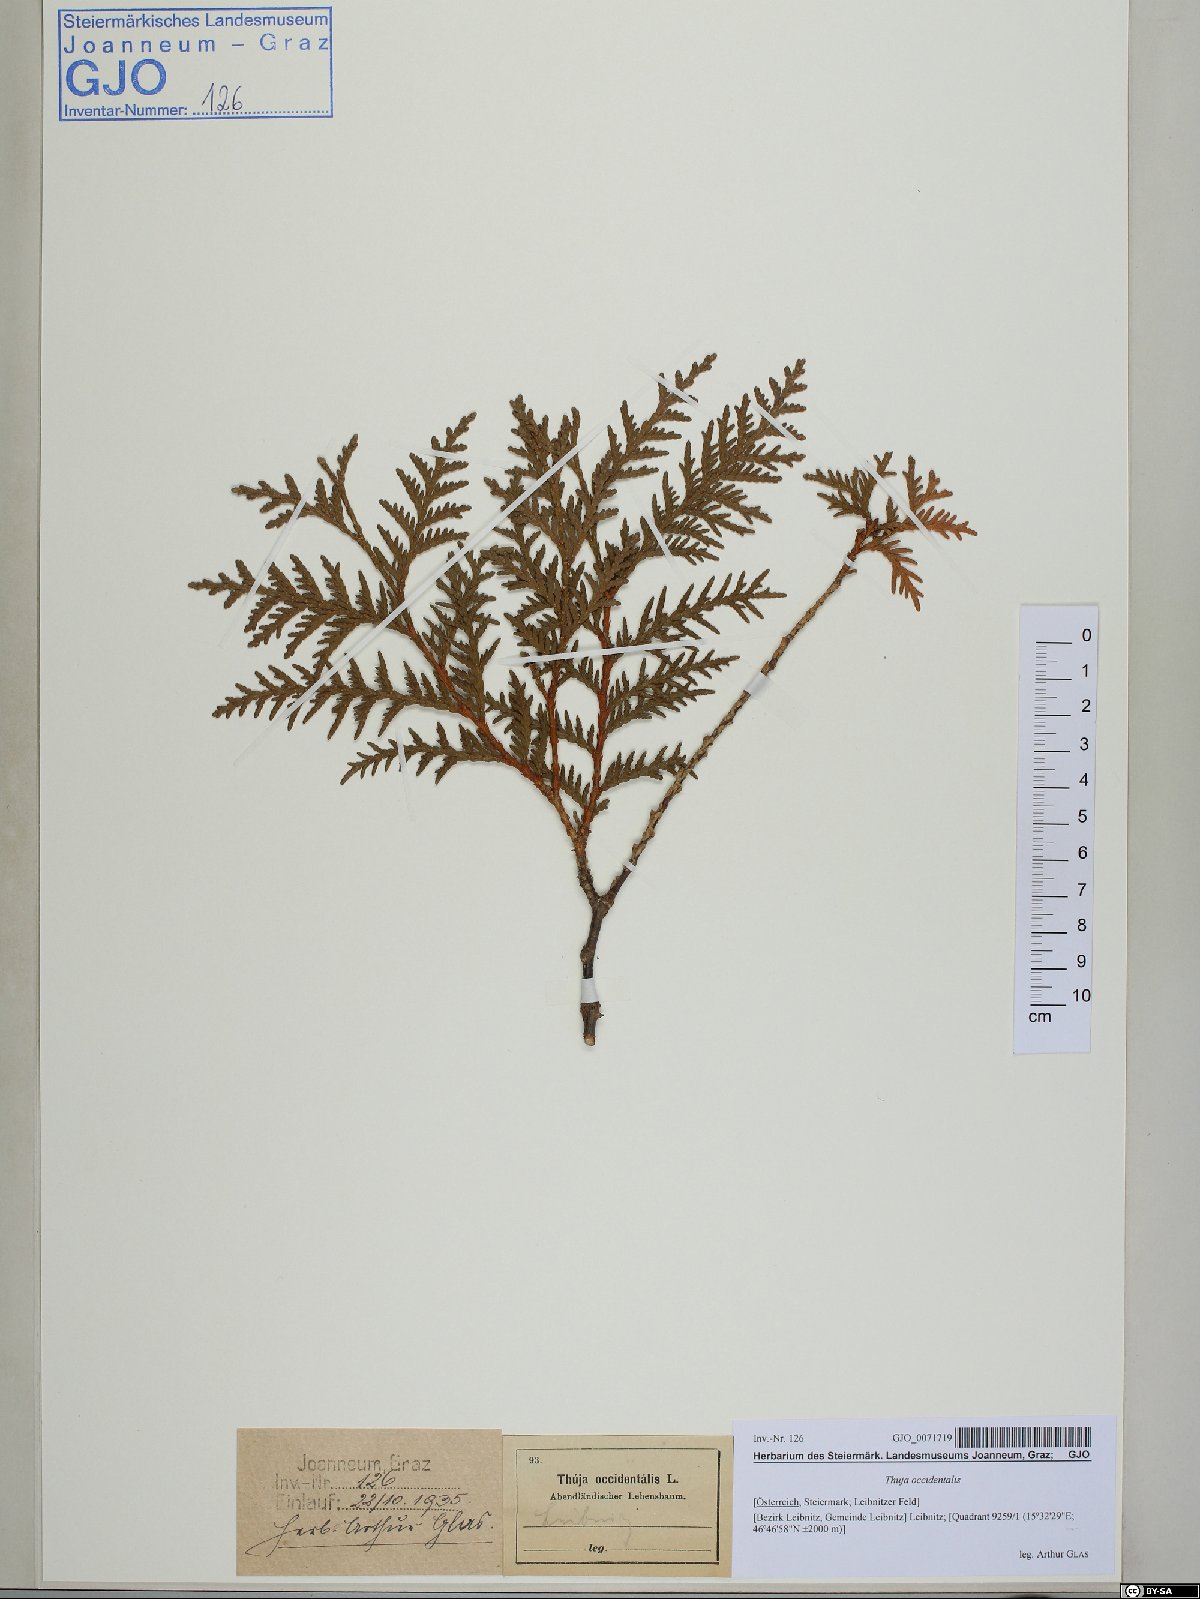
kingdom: Plantae
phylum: Tracheophyta
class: Pinopsida
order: Pinales
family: Cupressaceae
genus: Thuja
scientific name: Thuja occidentalis
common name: Northern white-cedar
